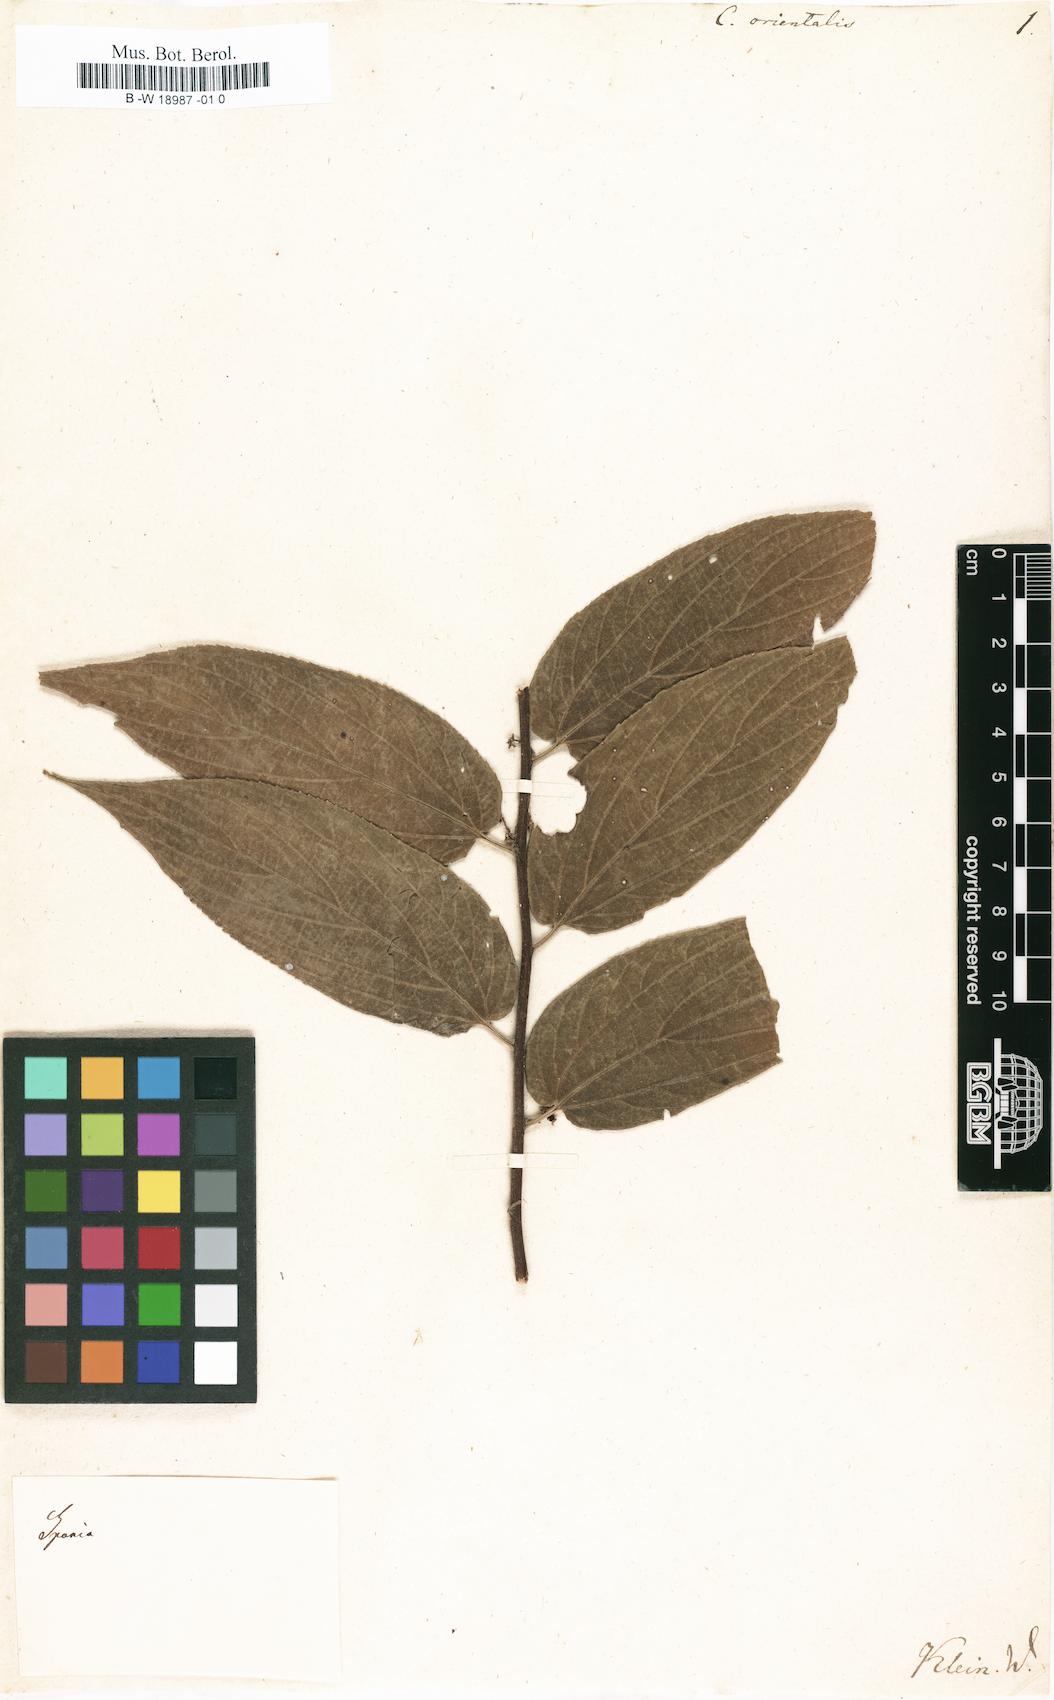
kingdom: Plantae
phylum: Tracheophyta
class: Magnoliopsida
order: Rosales
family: Cannabaceae
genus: Trema
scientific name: Trema orientale
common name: Indian charcoal tree
